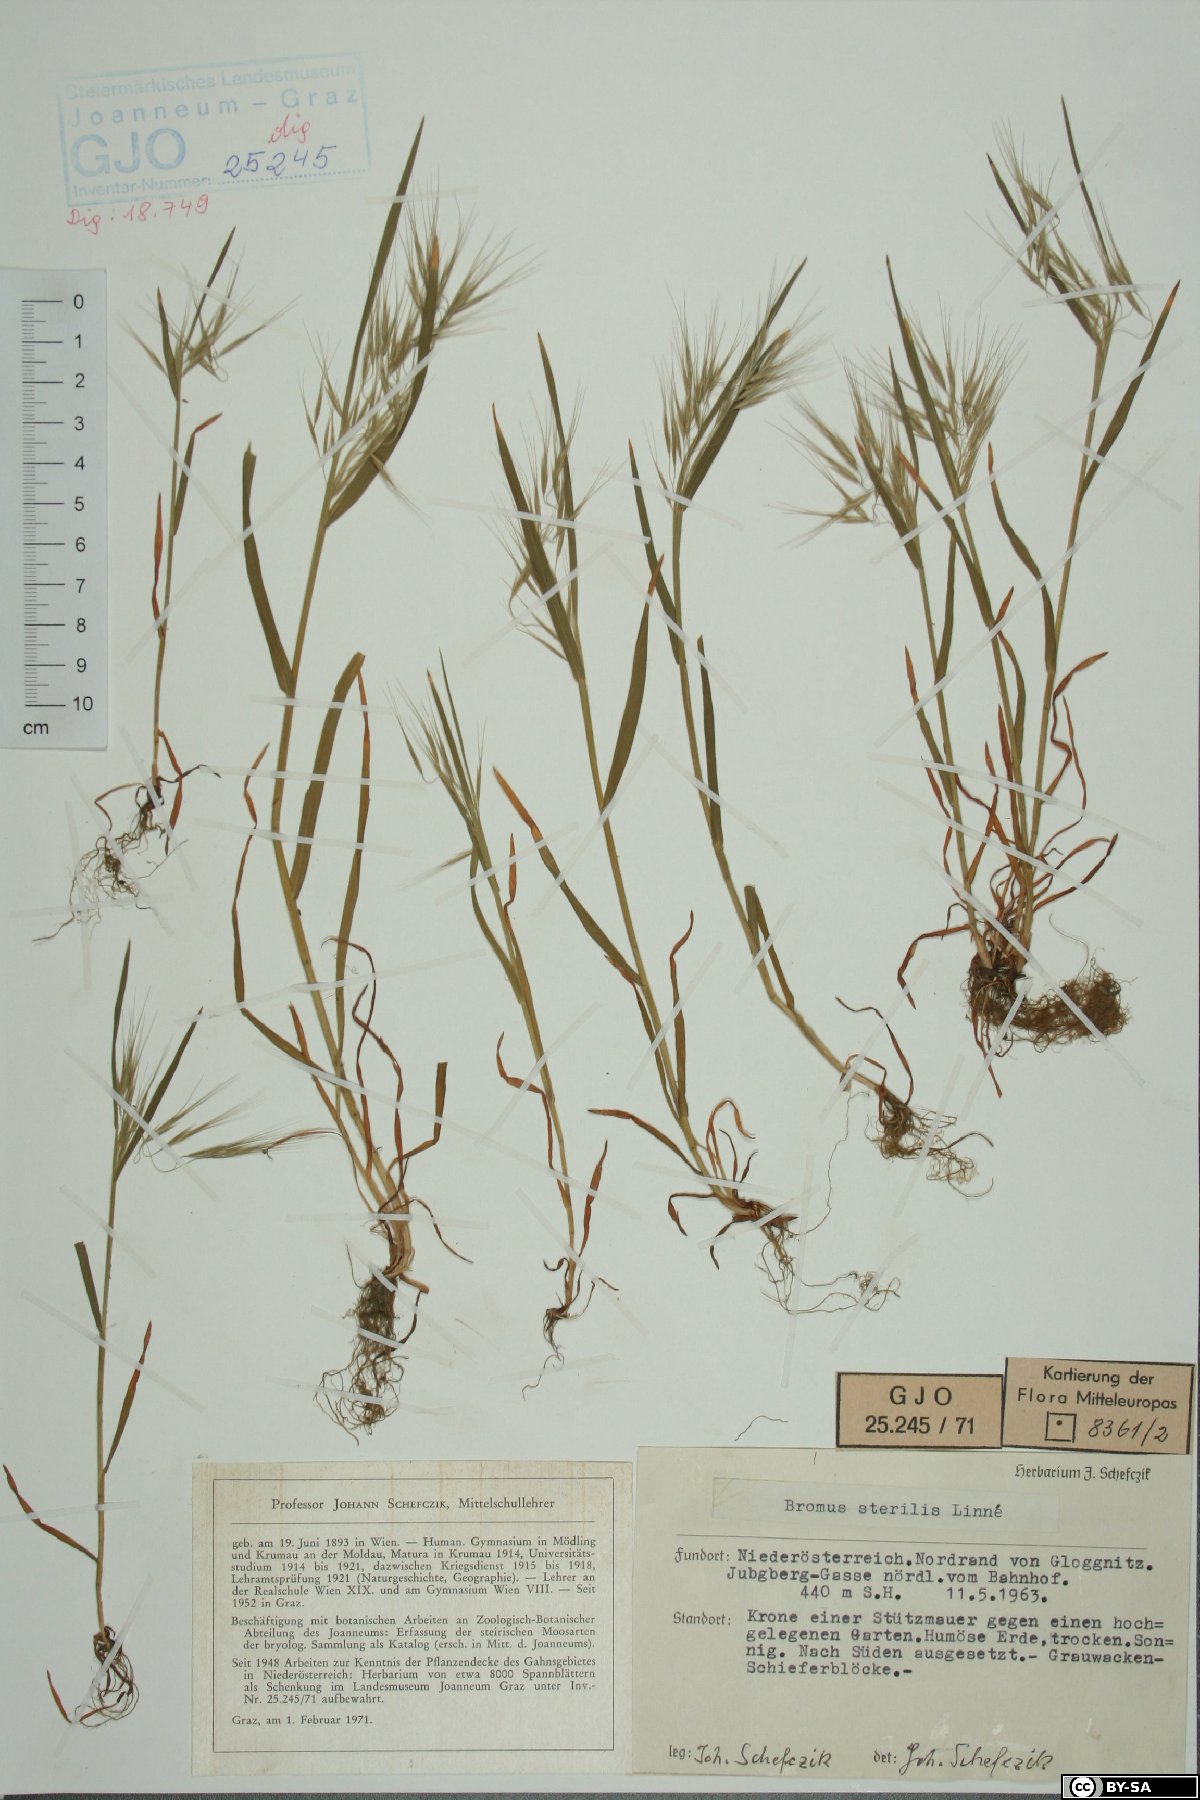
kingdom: Plantae
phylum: Tracheophyta
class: Liliopsida
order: Poales
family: Poaceae
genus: Bromus
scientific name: Bromus sterilis
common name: Poverty brome
